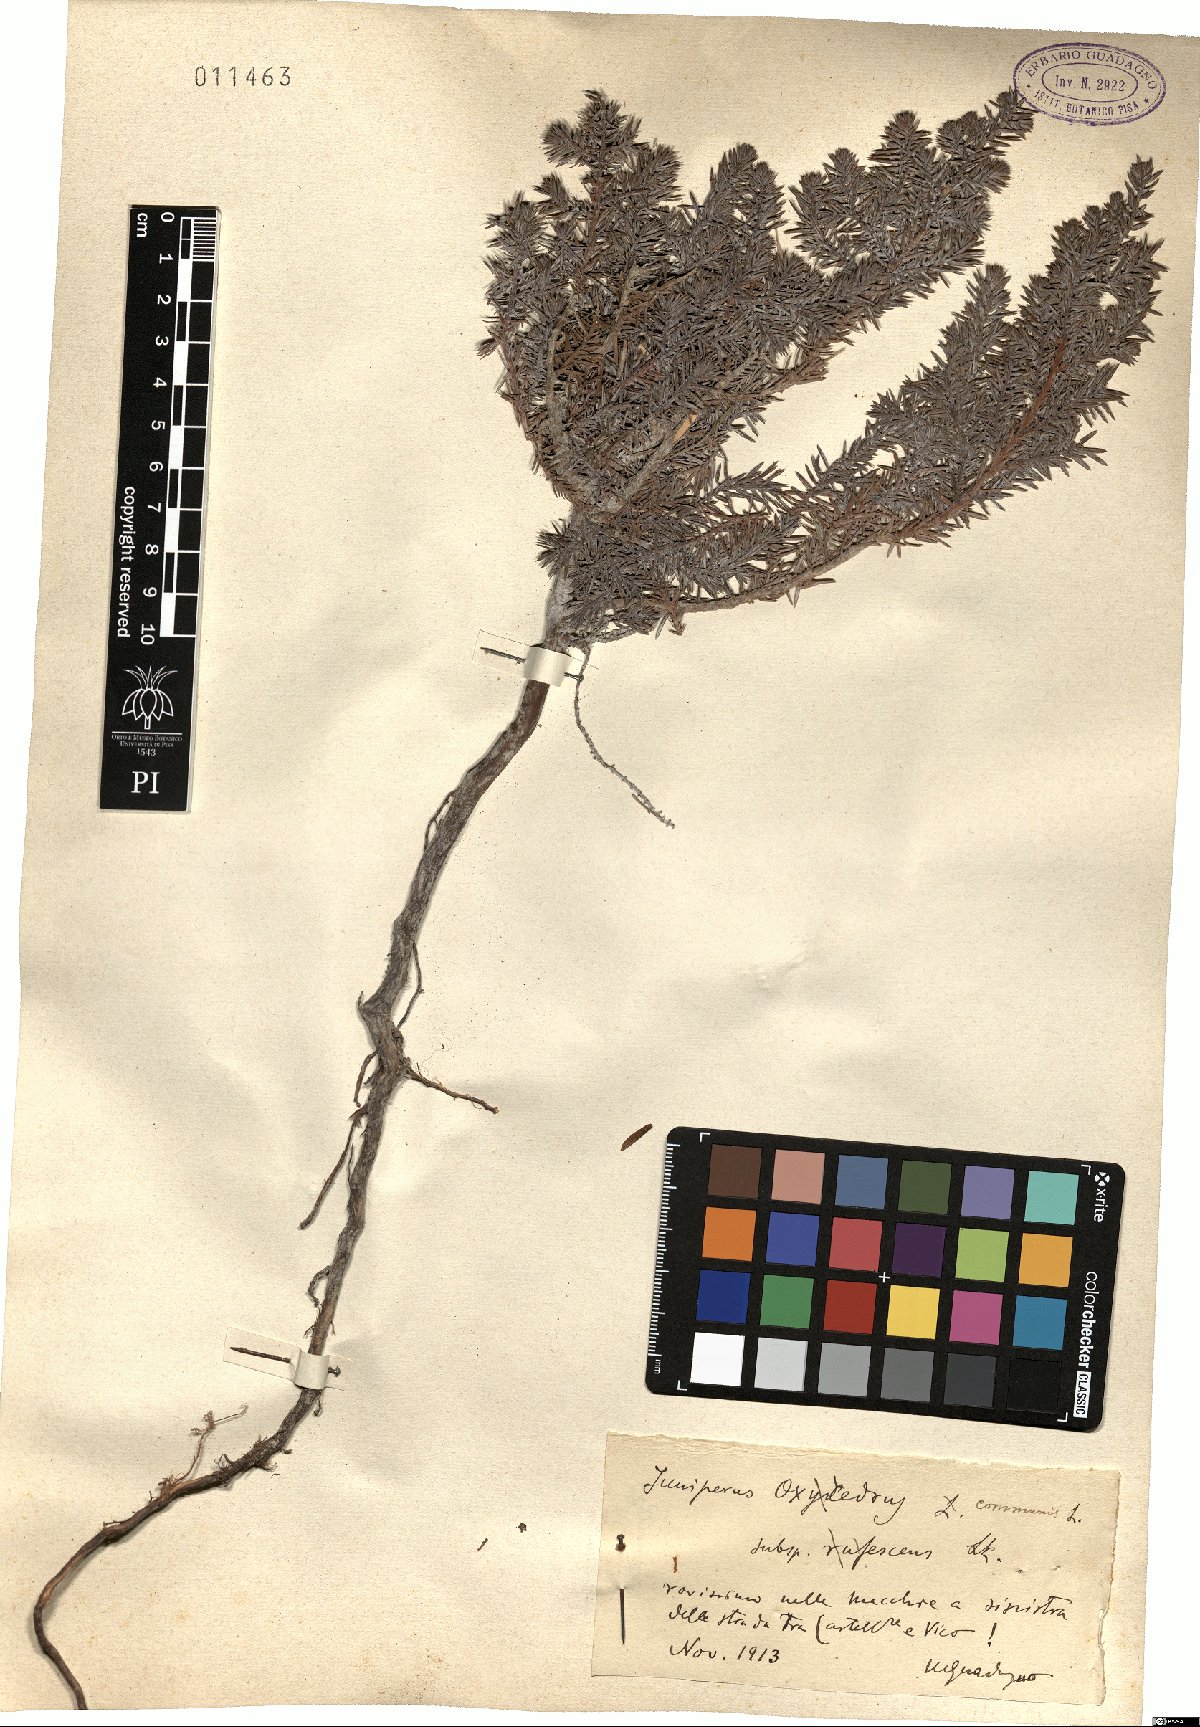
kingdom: Plantae
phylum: Tracheophyta
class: Pinopsida
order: Pinales
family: Cupressaceae
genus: Juniperus
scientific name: Juniperus oxycedrus
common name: Prickly juniper
